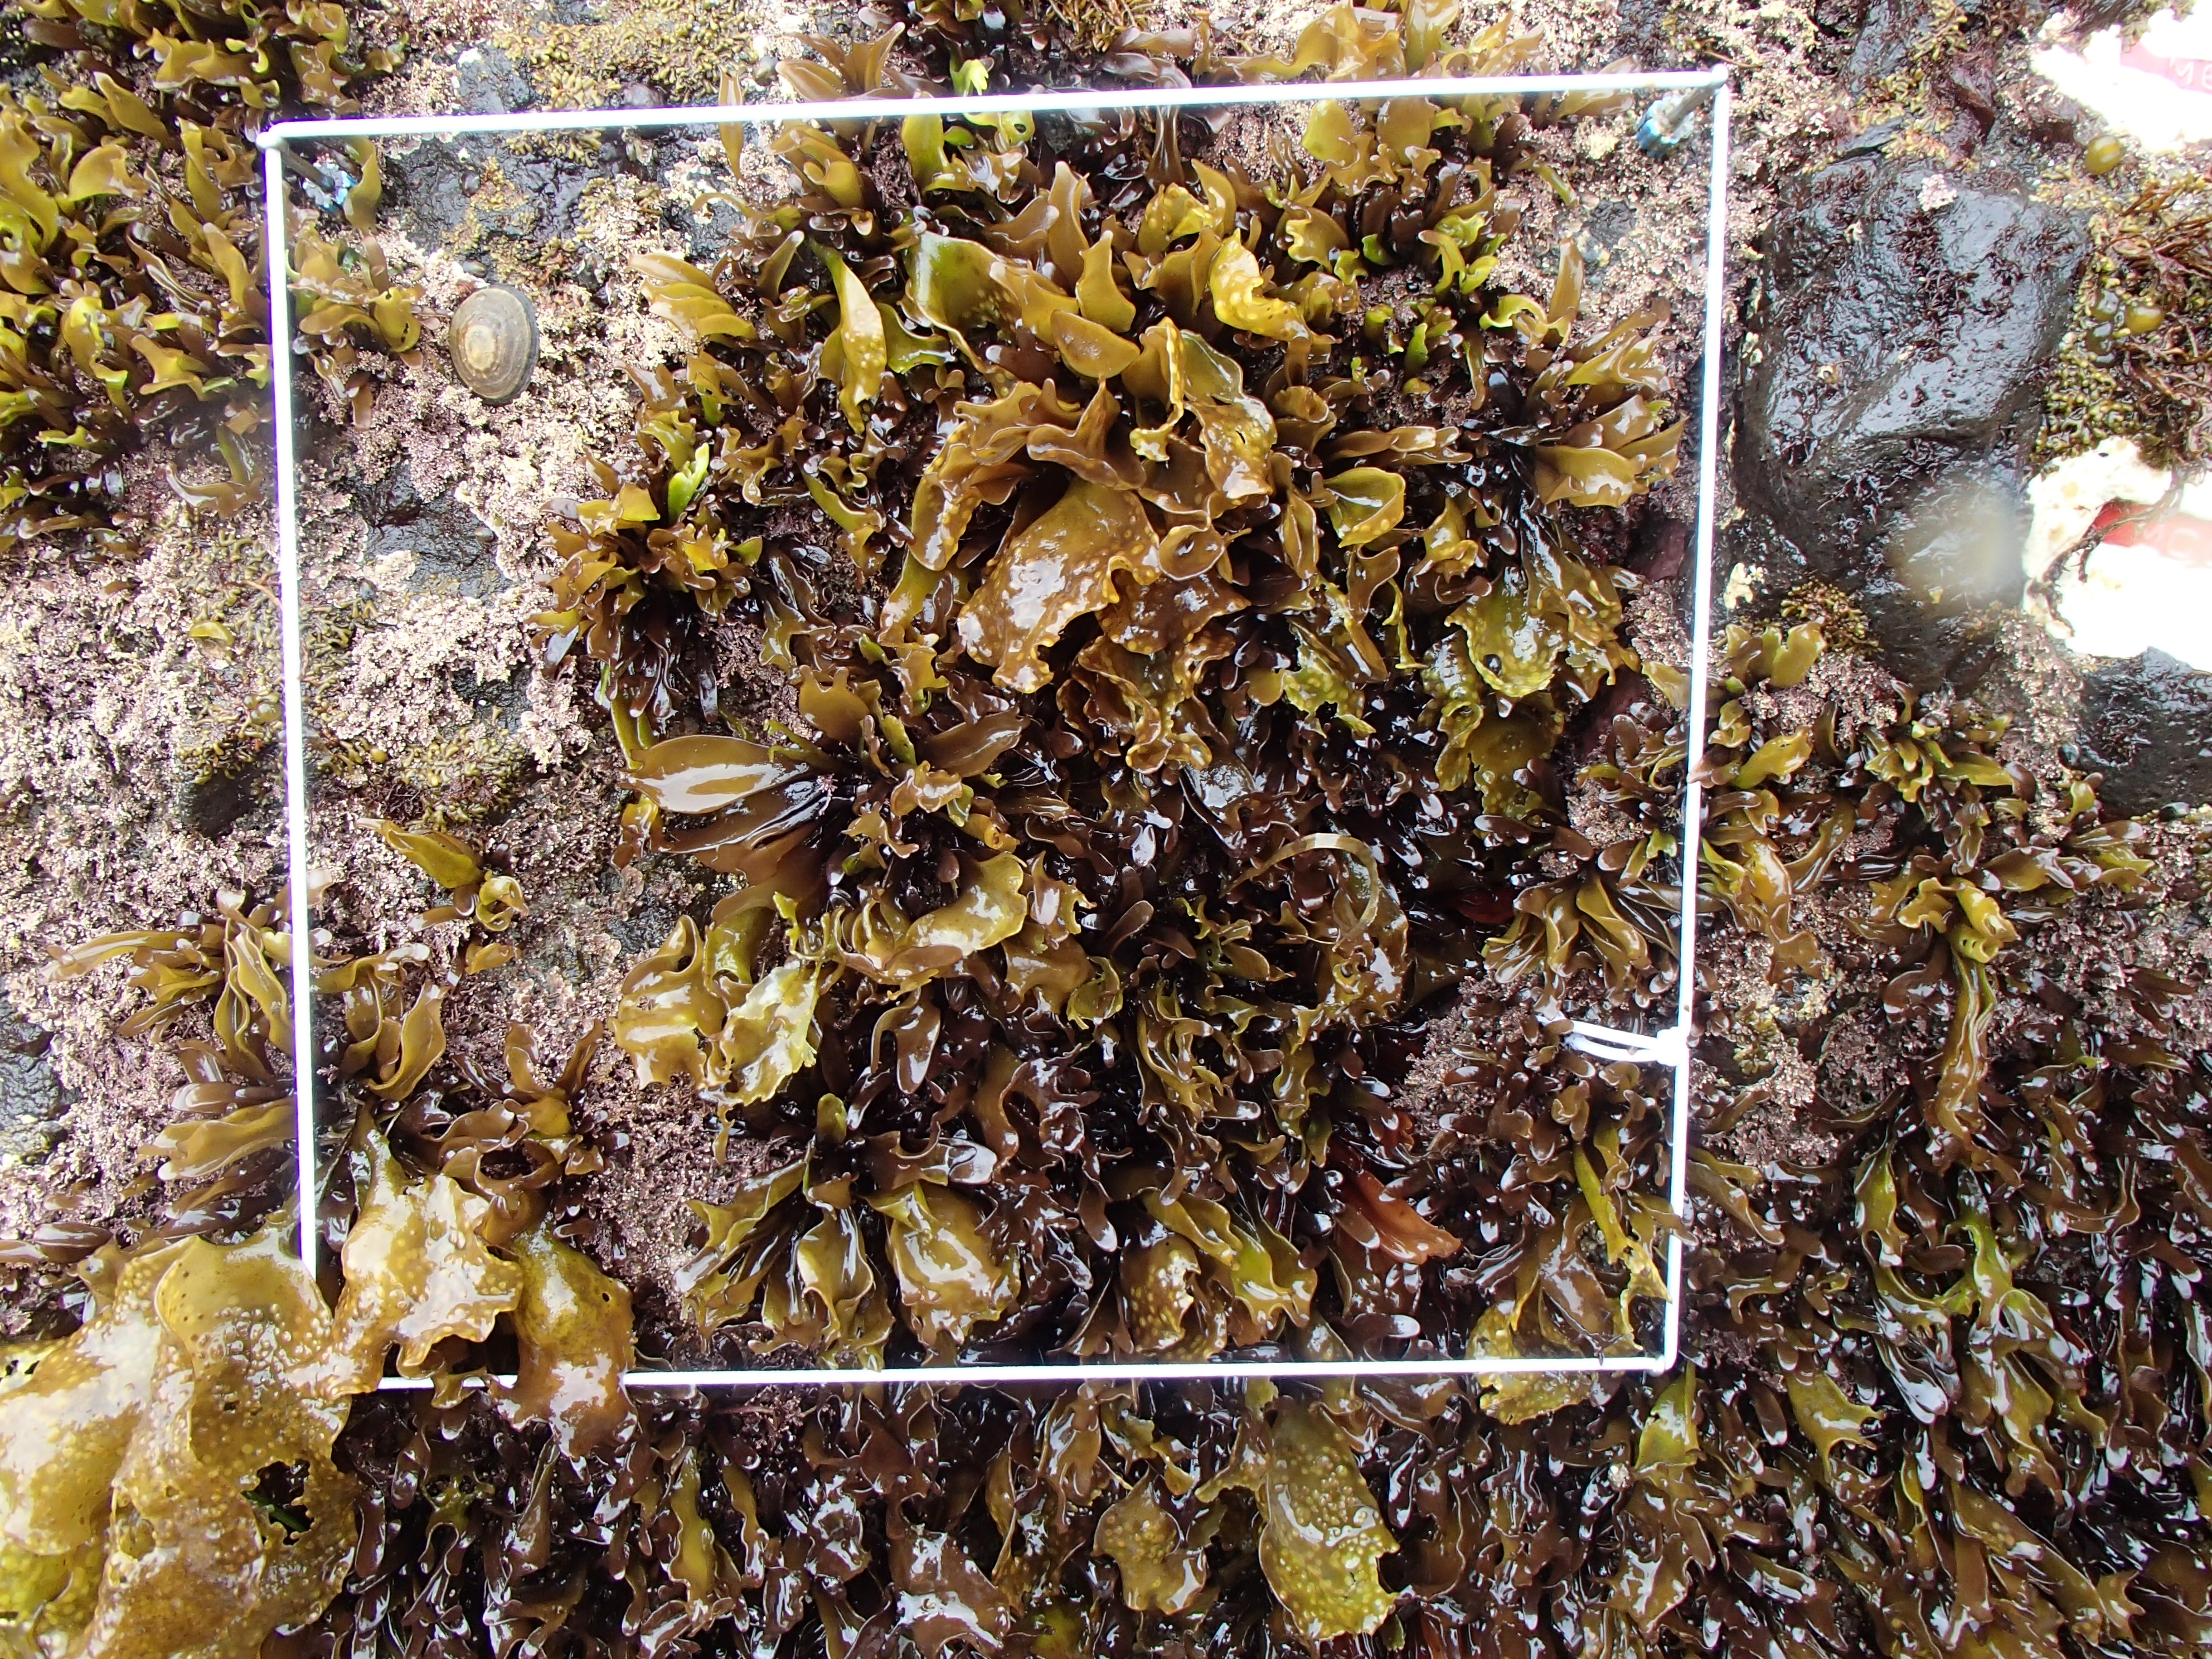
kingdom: Chromista
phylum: Ochrophyta
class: Phaeophyceae
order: Scytosiphonales
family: Scytosiphonaceae
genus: Analipus
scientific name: Analipus japonicus
